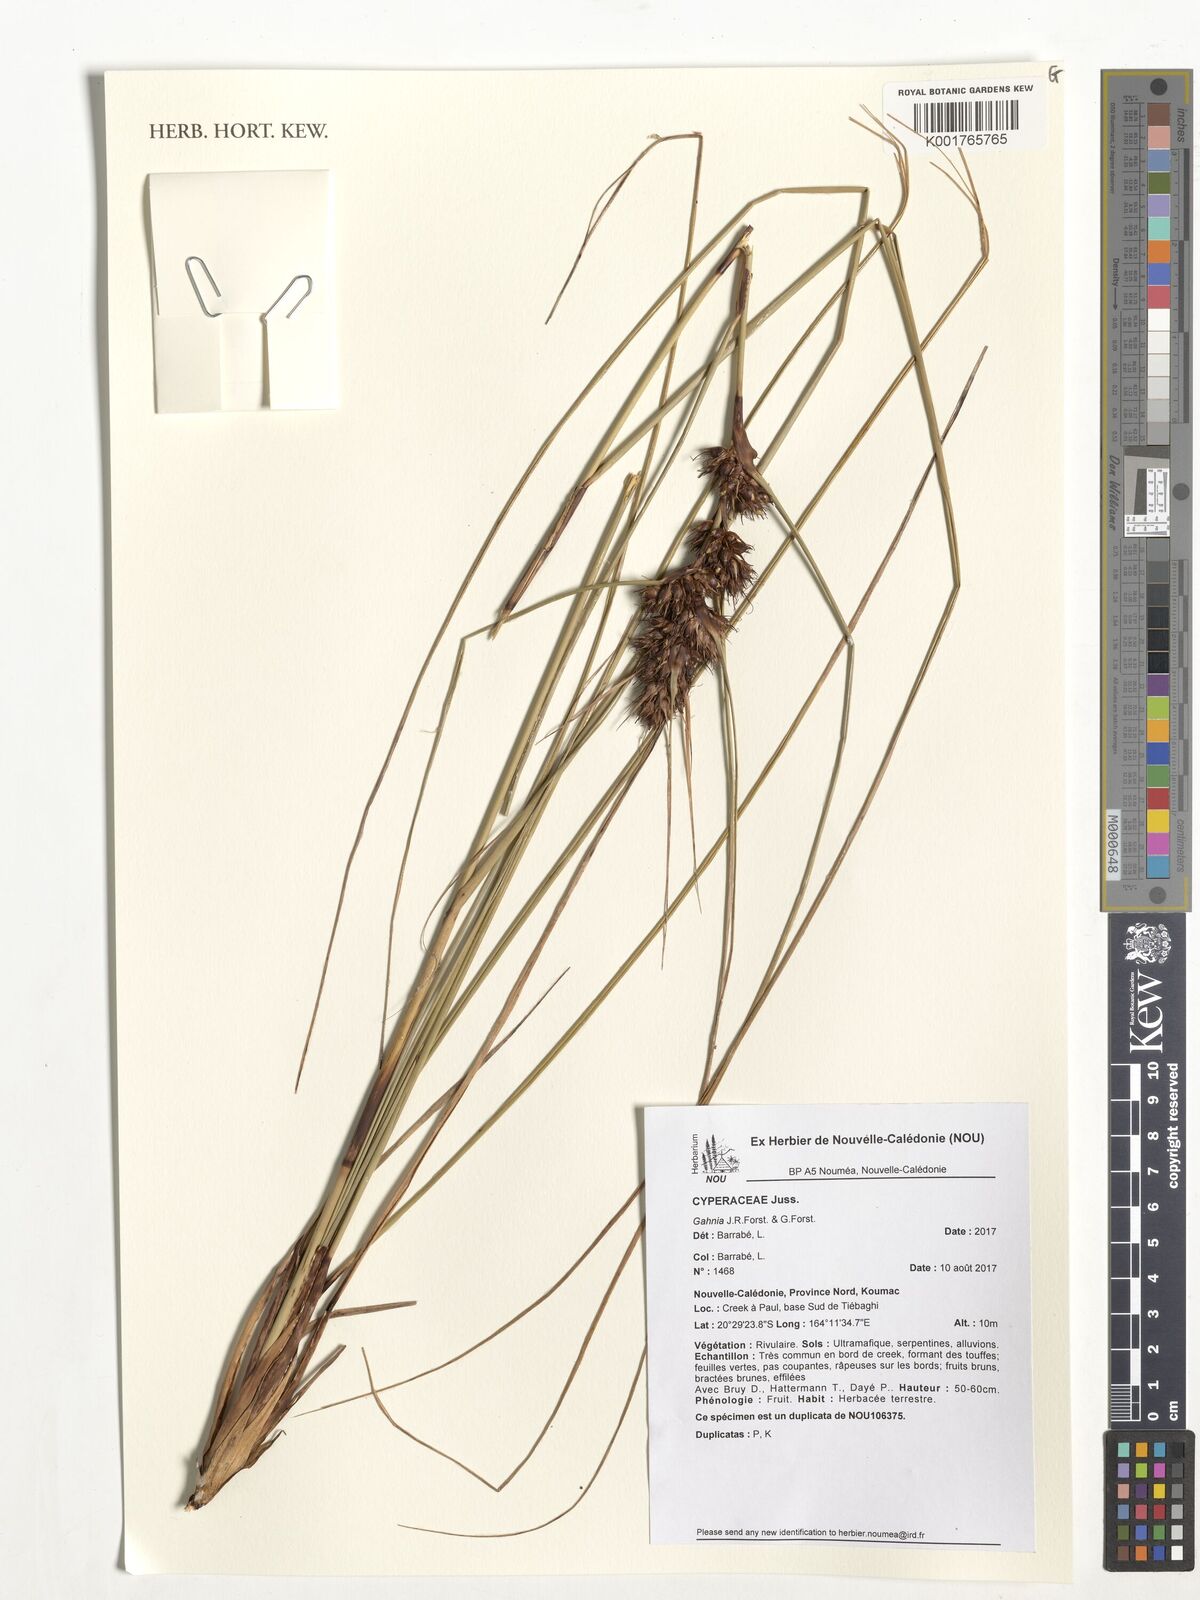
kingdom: Plantae
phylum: Tracheophyta
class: Liliopsida
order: Poales
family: Cyperaceae
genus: Gahnia
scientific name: Gahnia
